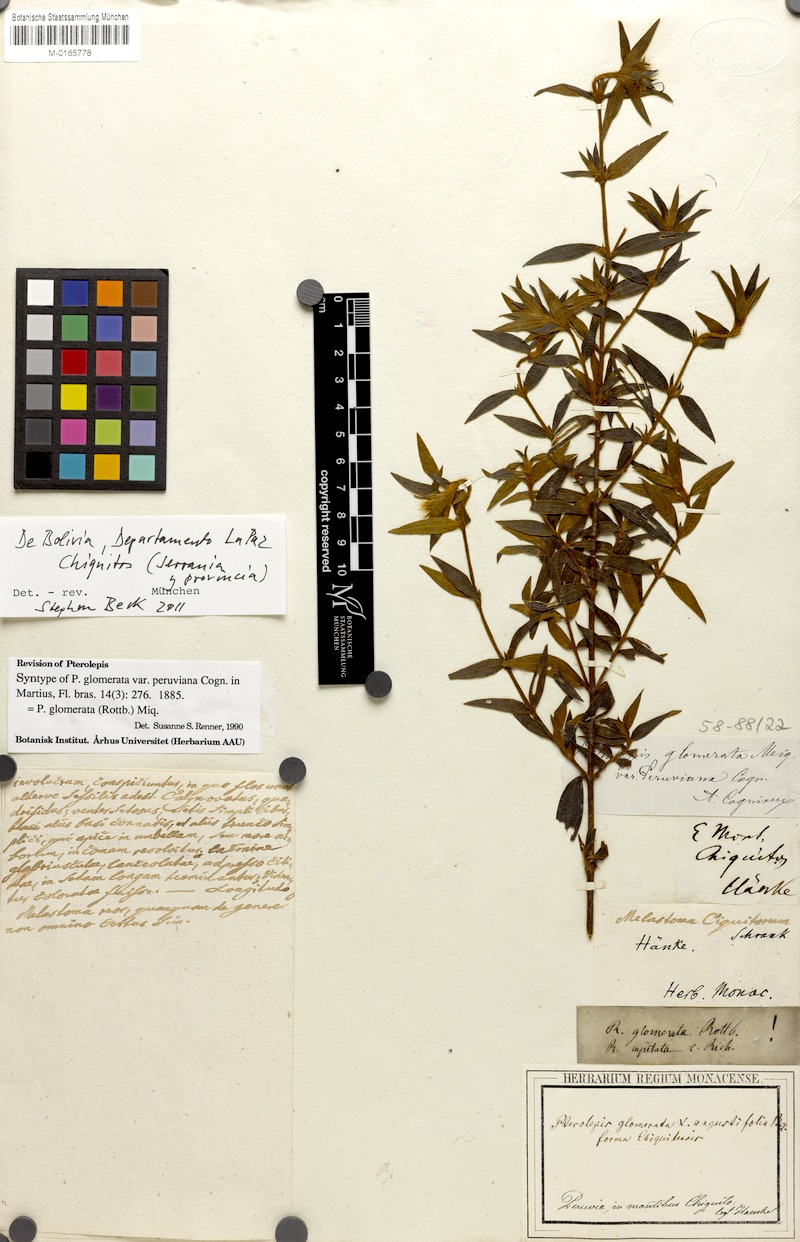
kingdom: Plantae
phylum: Tracheophyta
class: Magnoliopsida
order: Myrtales
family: Melastomataceae
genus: Pterolepis
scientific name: Pterolepis glomerata
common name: False meadowbeauty
